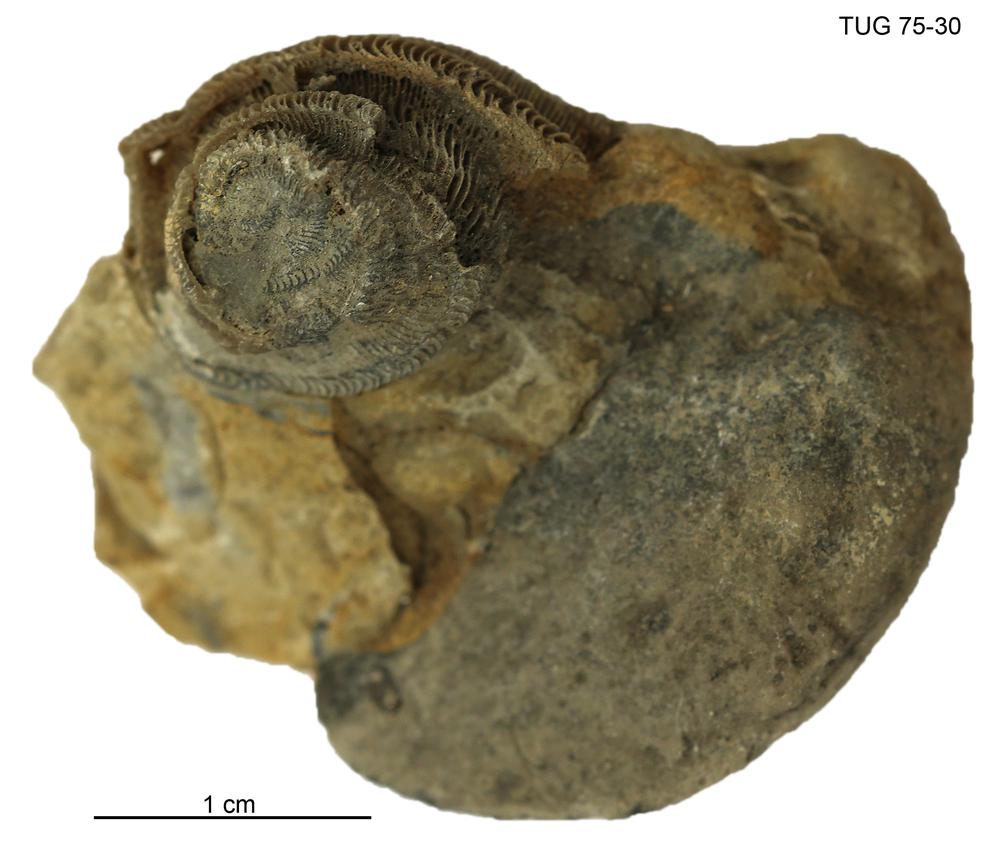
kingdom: Animalia
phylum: Mollusca
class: Gastropoda
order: Pleurotomariida
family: Phanerotrematidae
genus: Brachytomaria
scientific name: Brachytomaria Pleurotomaria baltica
